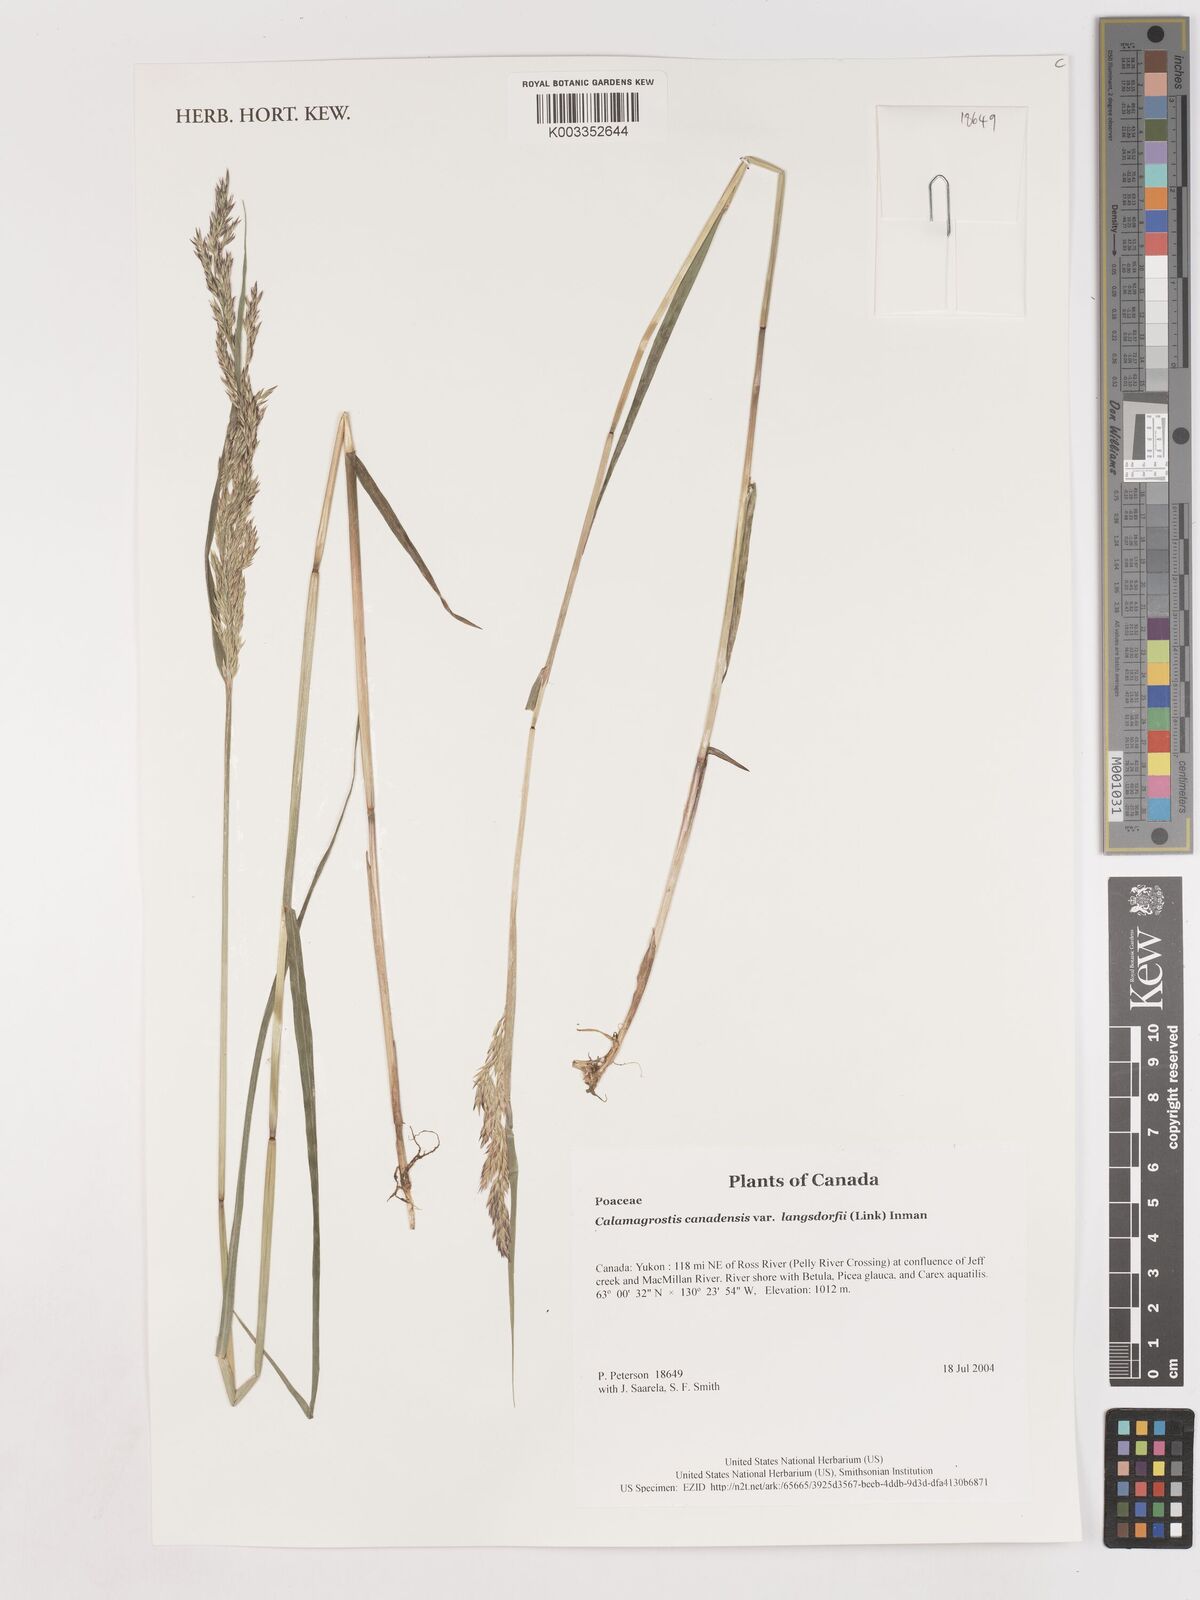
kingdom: Plantae
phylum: Tracheophyta
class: Liliopsida
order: Poales
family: Poaceae
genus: Calamagrostis
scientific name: Calamagrostis canadensis
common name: Canada bluejoint
